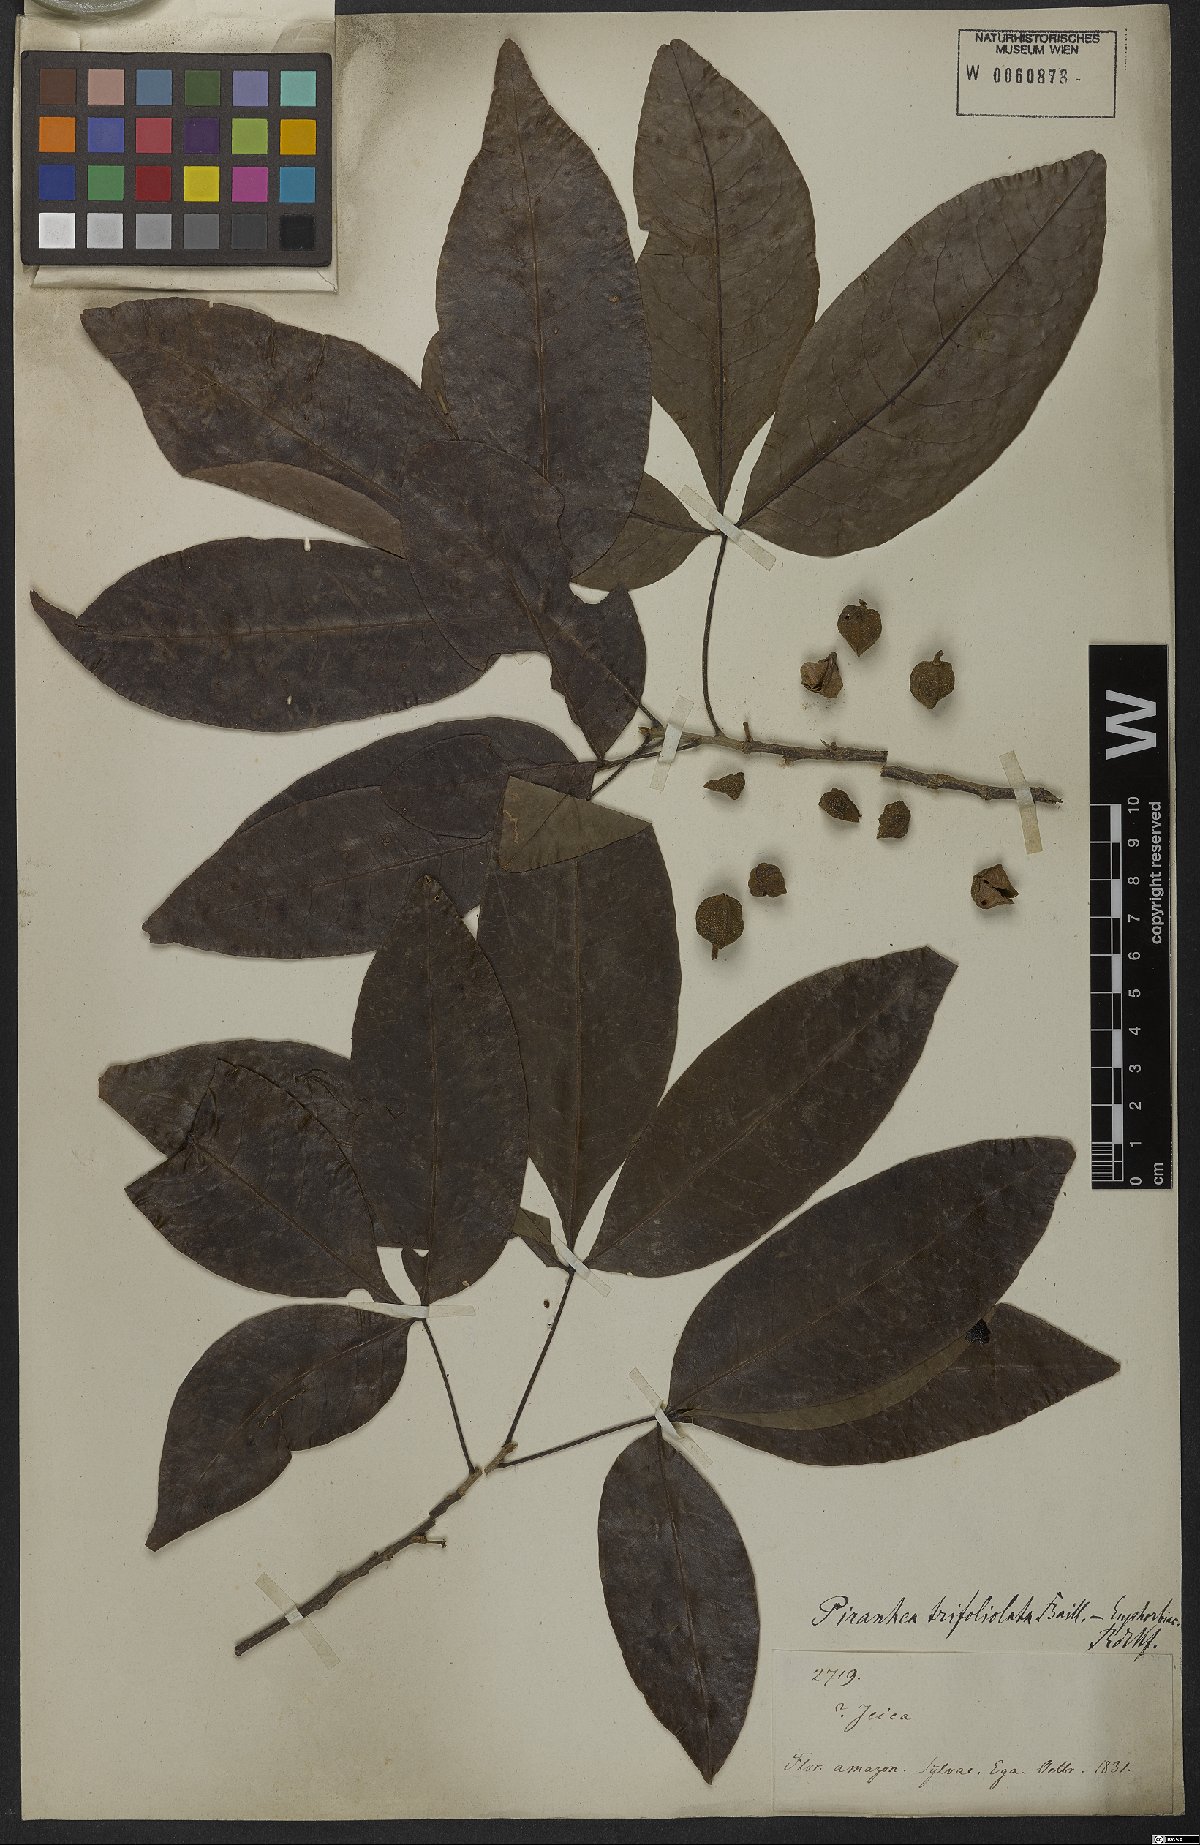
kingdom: Plantae
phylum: Tracheophyta
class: Magnoliopsida
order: Malpighiales
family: Picrodendraceae
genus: Piranhea
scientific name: Piranhea trifoliata
